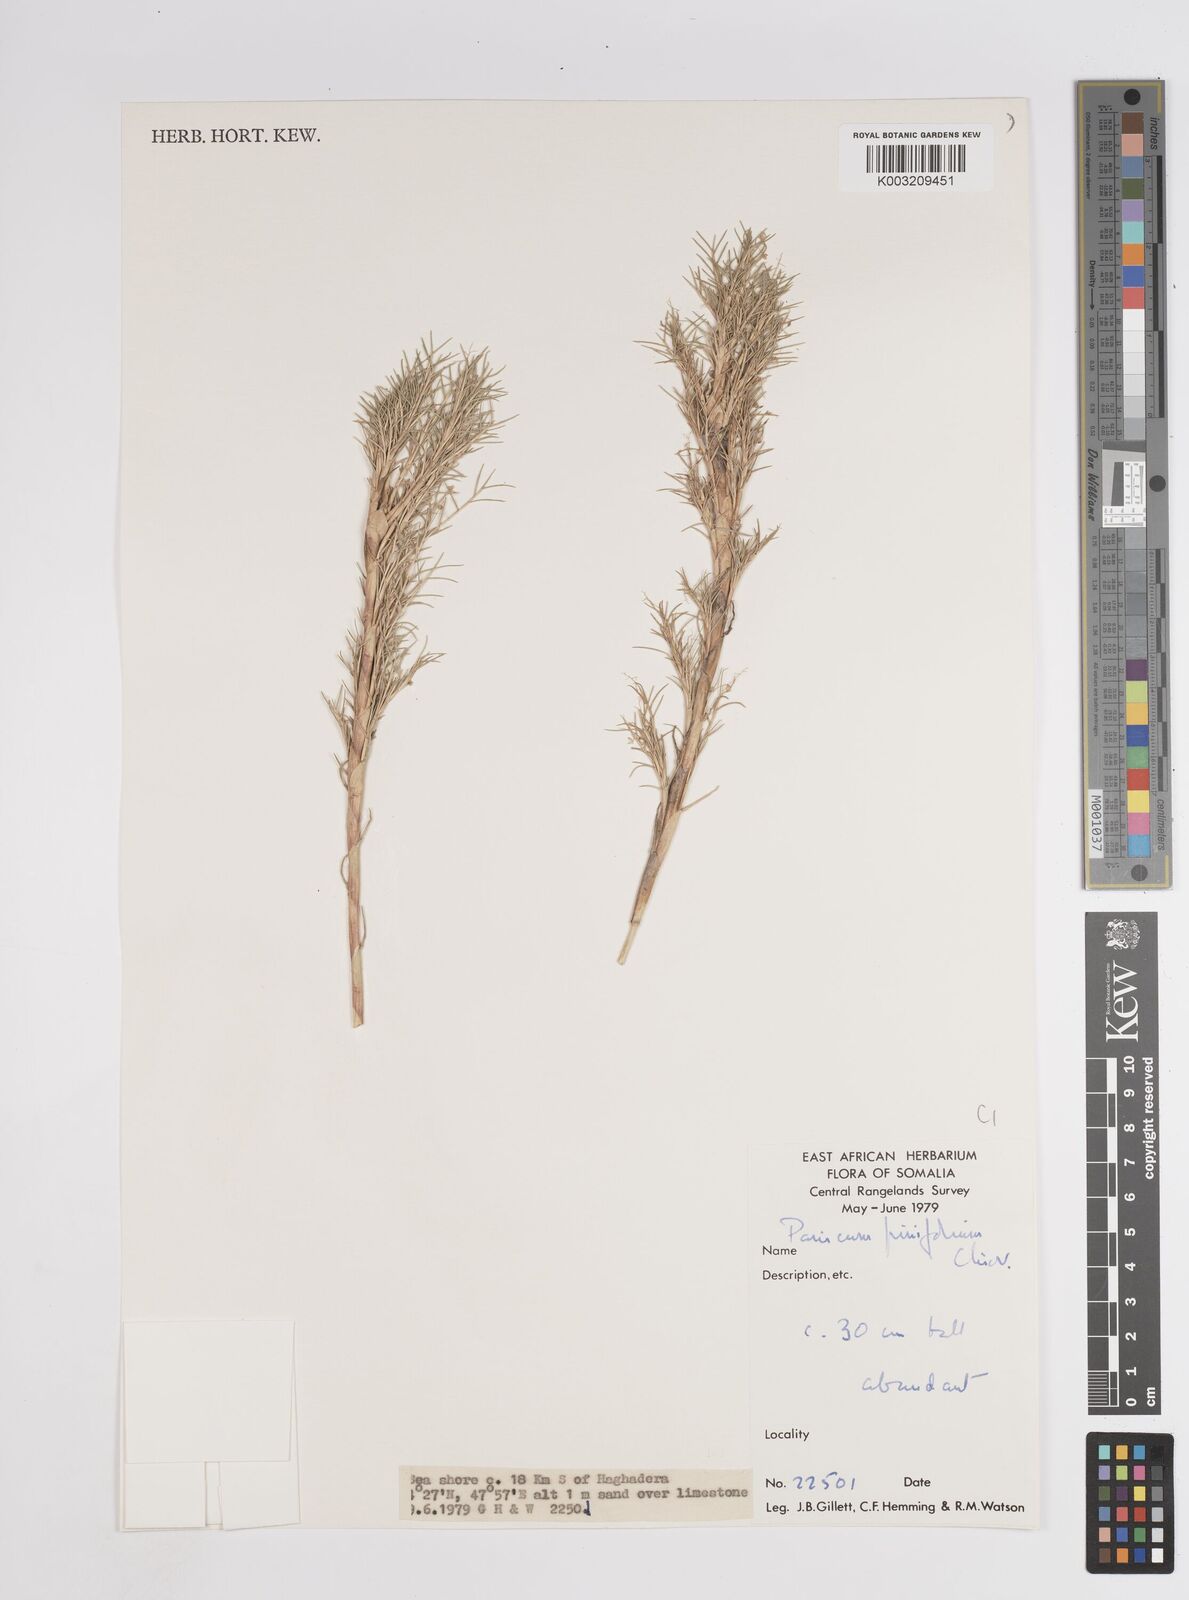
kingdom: Plantae
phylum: Tracheophyta
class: Liliopsida
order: Poales
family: Poaceae
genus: Panicum
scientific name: Panicum pinifolium
